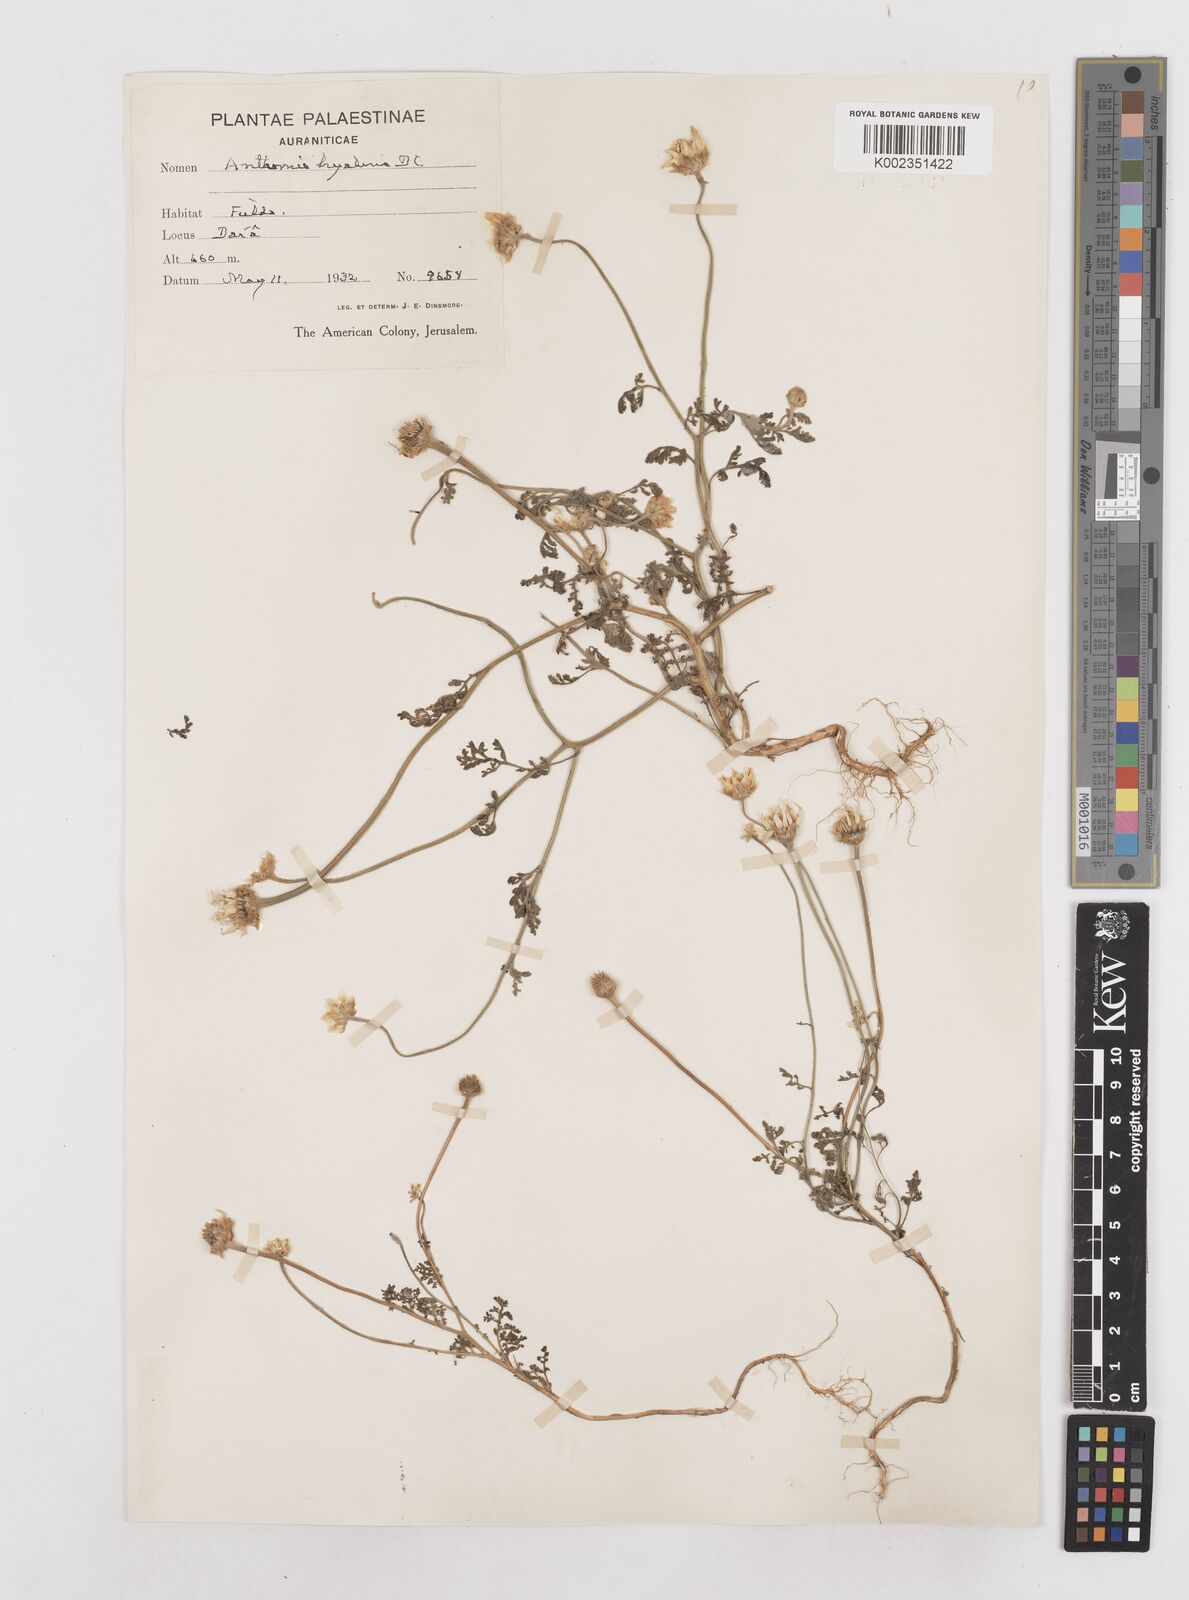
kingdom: Plantae
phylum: Tracheophyta
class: Magnoliopsida
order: Asterales
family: Asteraceae
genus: Anthemis
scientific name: Anthemis hyalina
